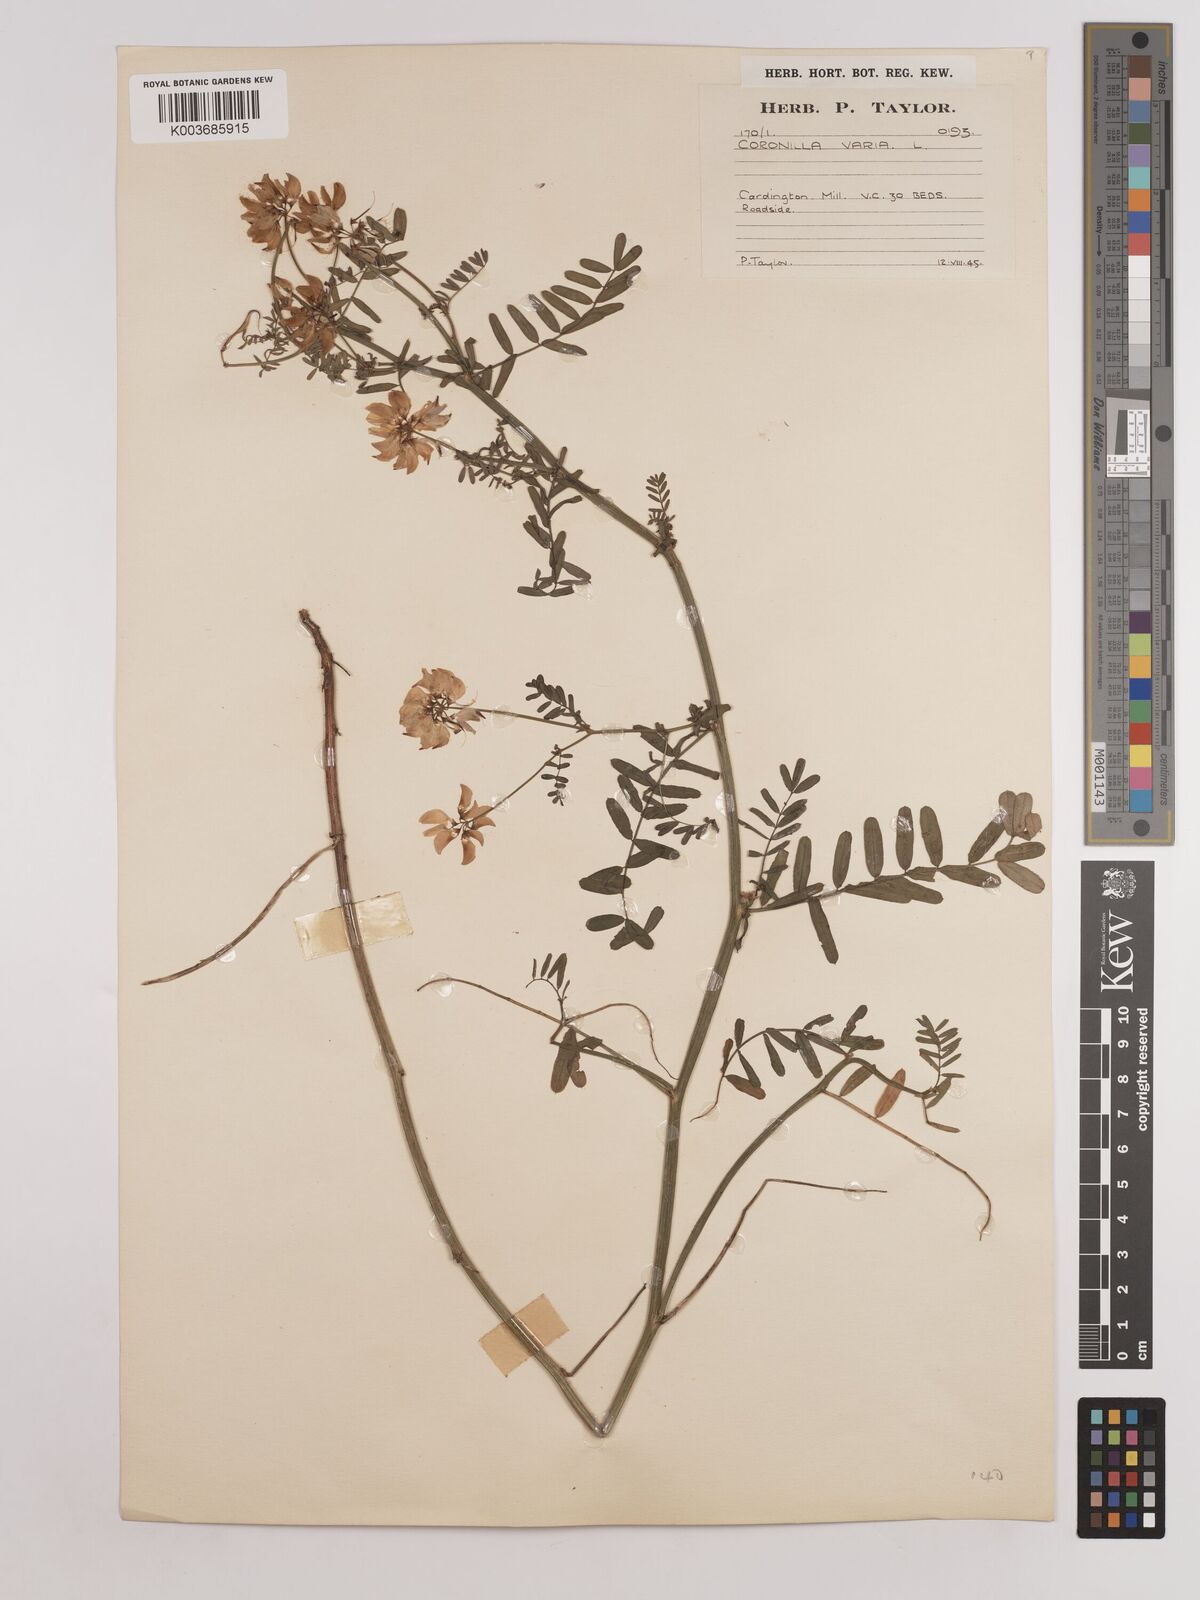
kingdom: Plantae
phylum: Tracheophyta
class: Magnoliopsida
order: Fabales
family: Fabaceae
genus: Coronilla
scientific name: Coronilla varia
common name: Crownvetch
